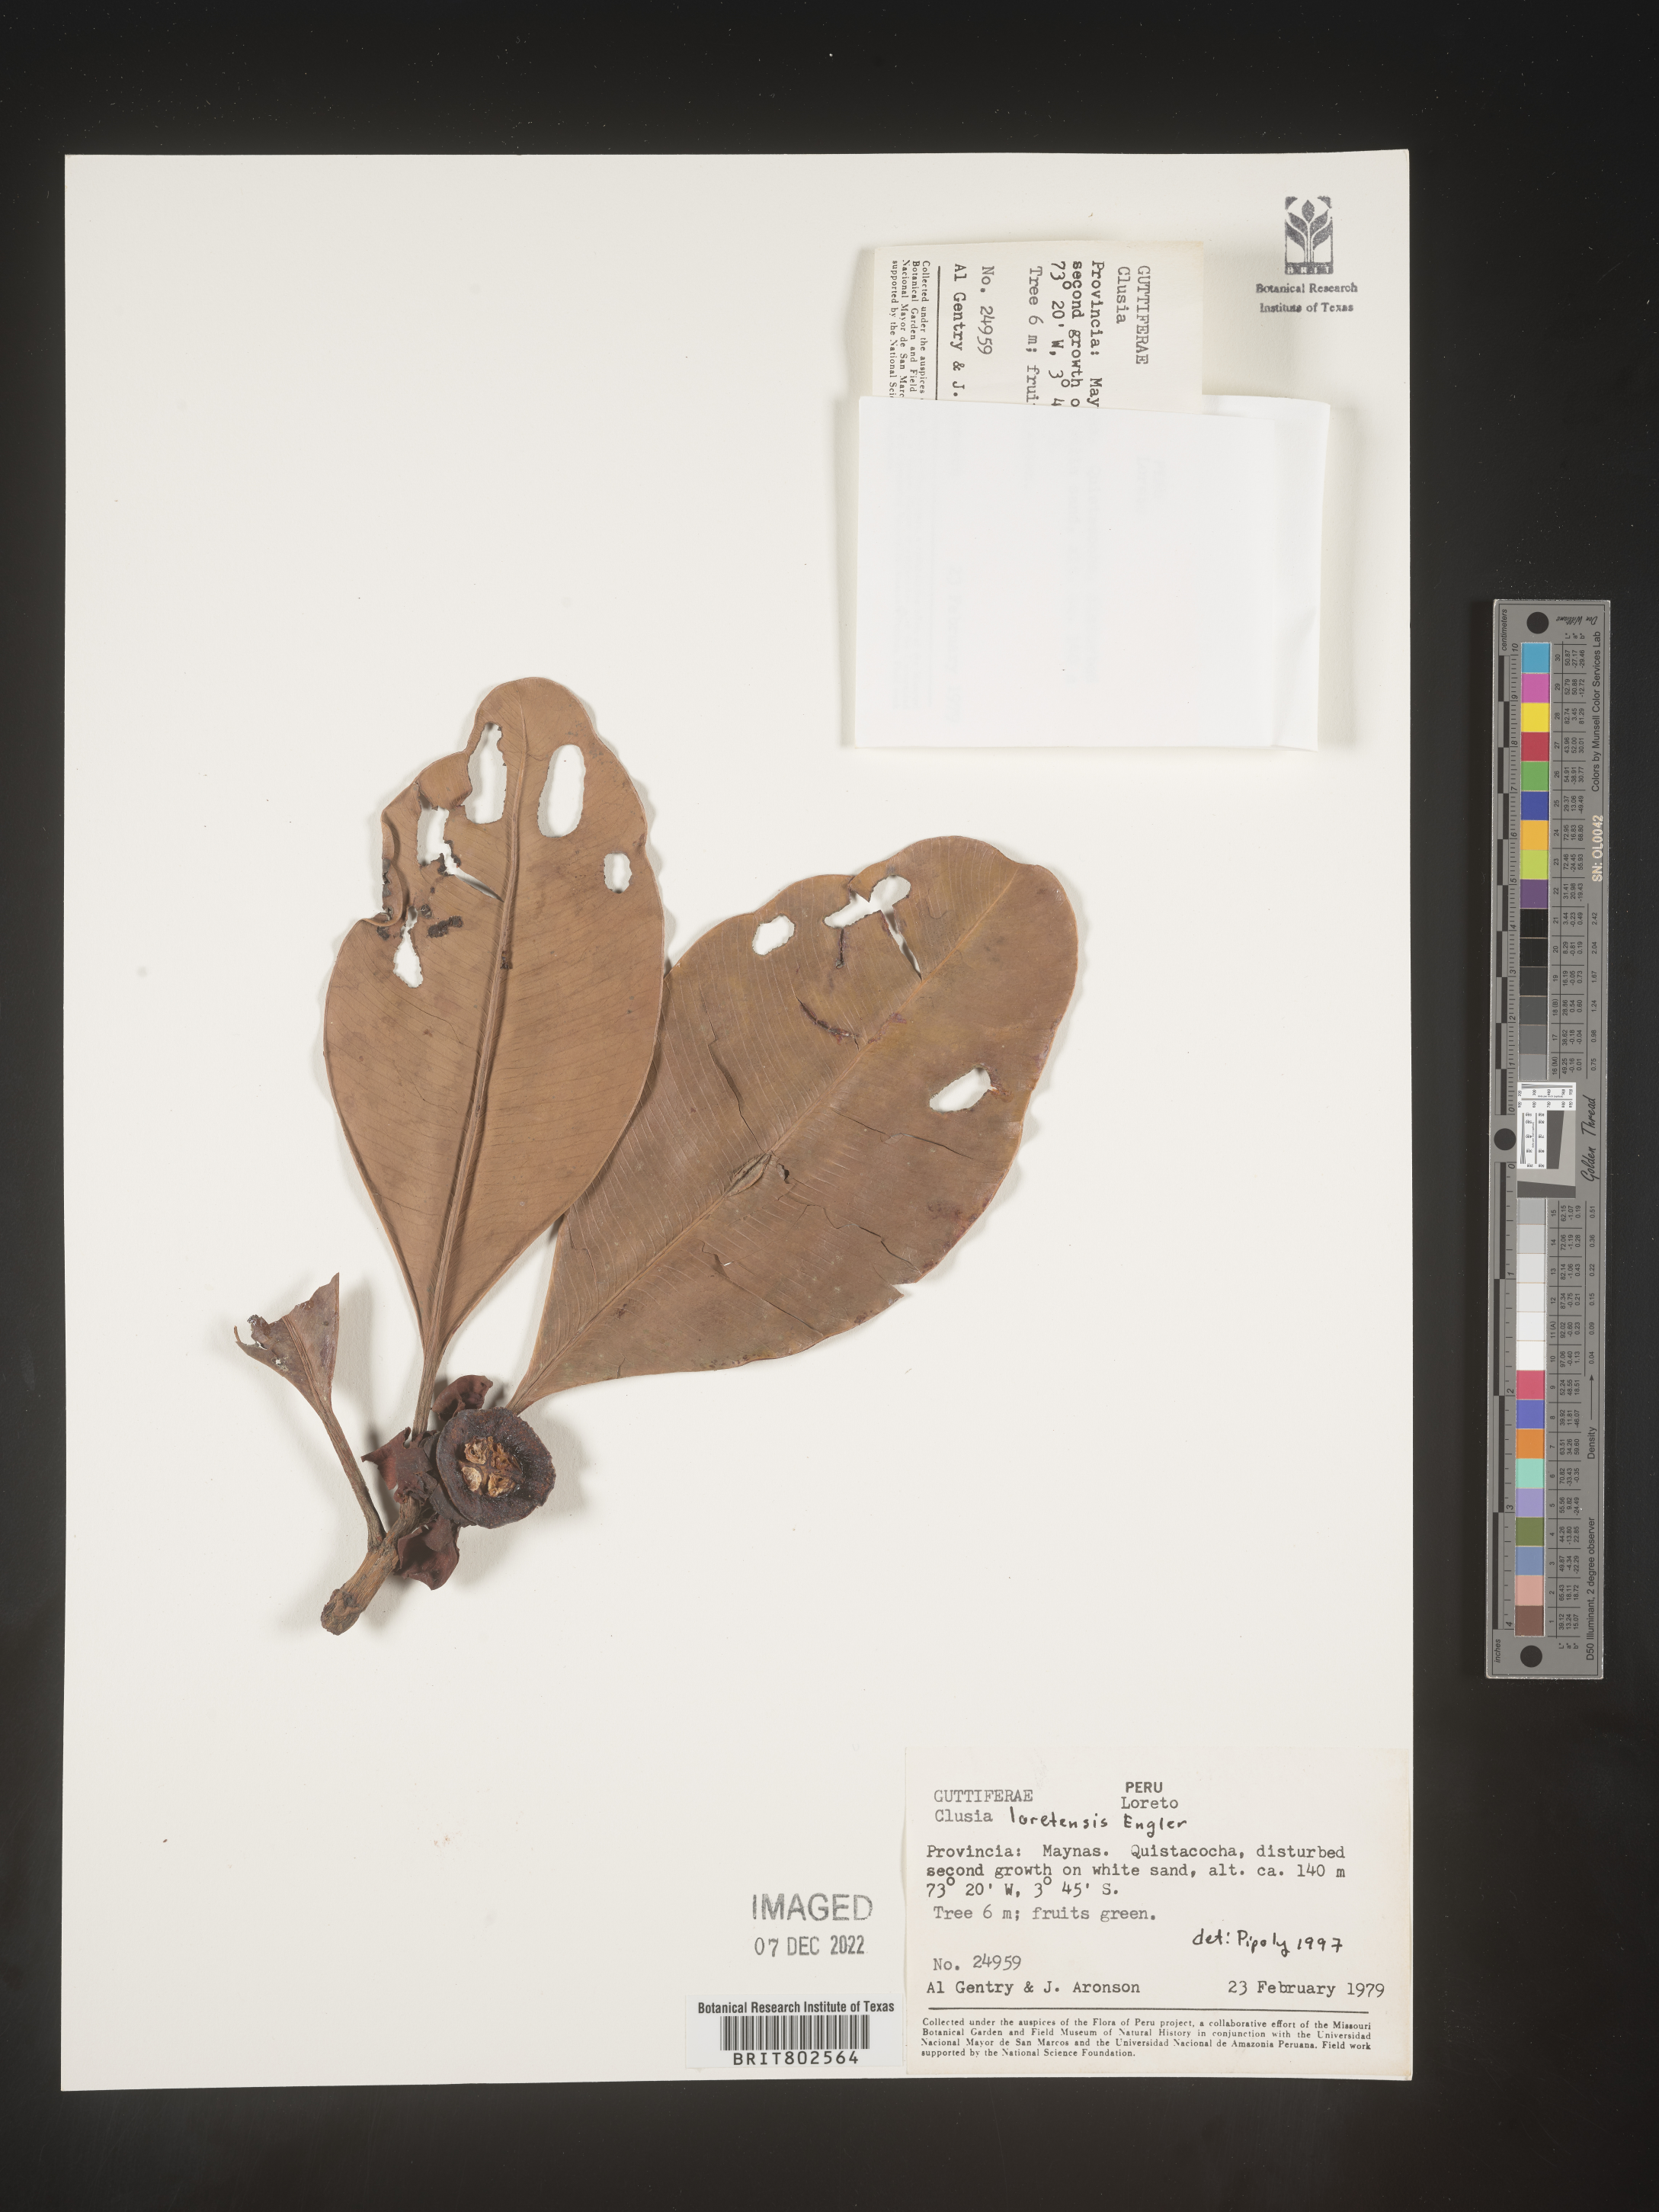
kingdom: Plantae
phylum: Tracheophyta
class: Magnoliopsida
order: Malpighiales
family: Clusiaceae
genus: Clusia
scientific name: Clusia loretensis
